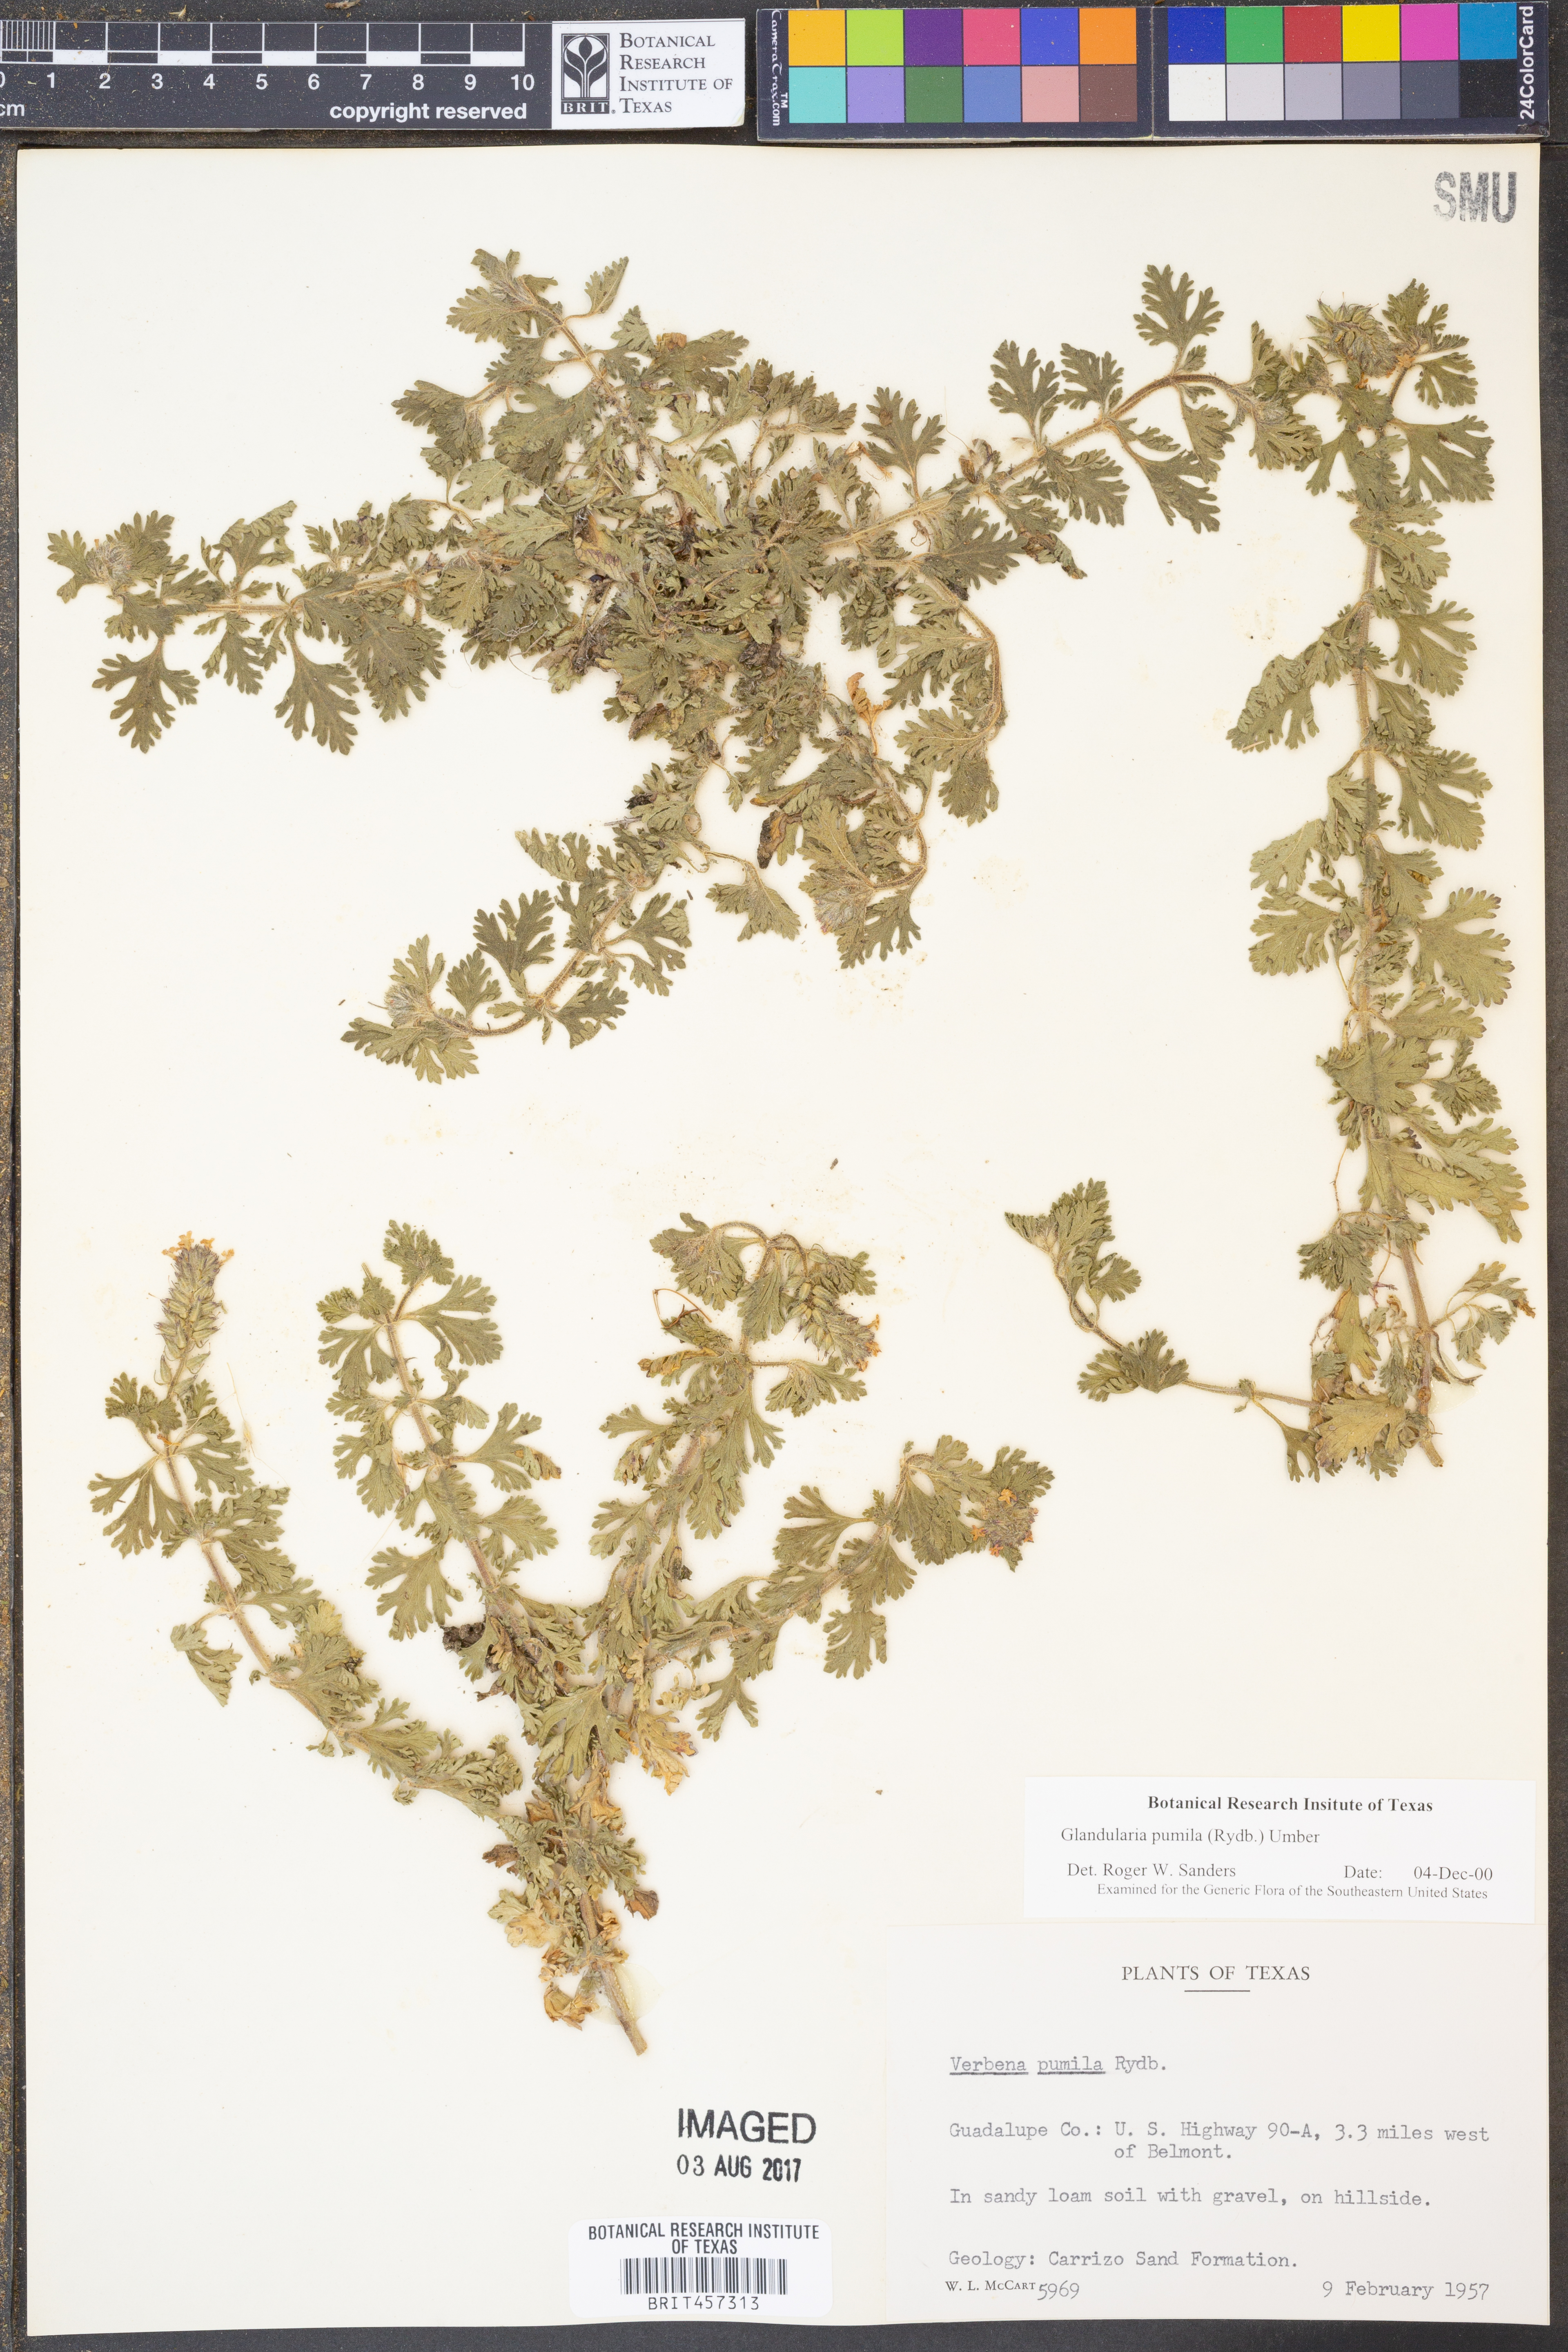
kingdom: Plantae
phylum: Tracheophyta
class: Magnoliopsida
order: Lamiales
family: Verbenaceae
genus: Verbena
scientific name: Verbena pumila
